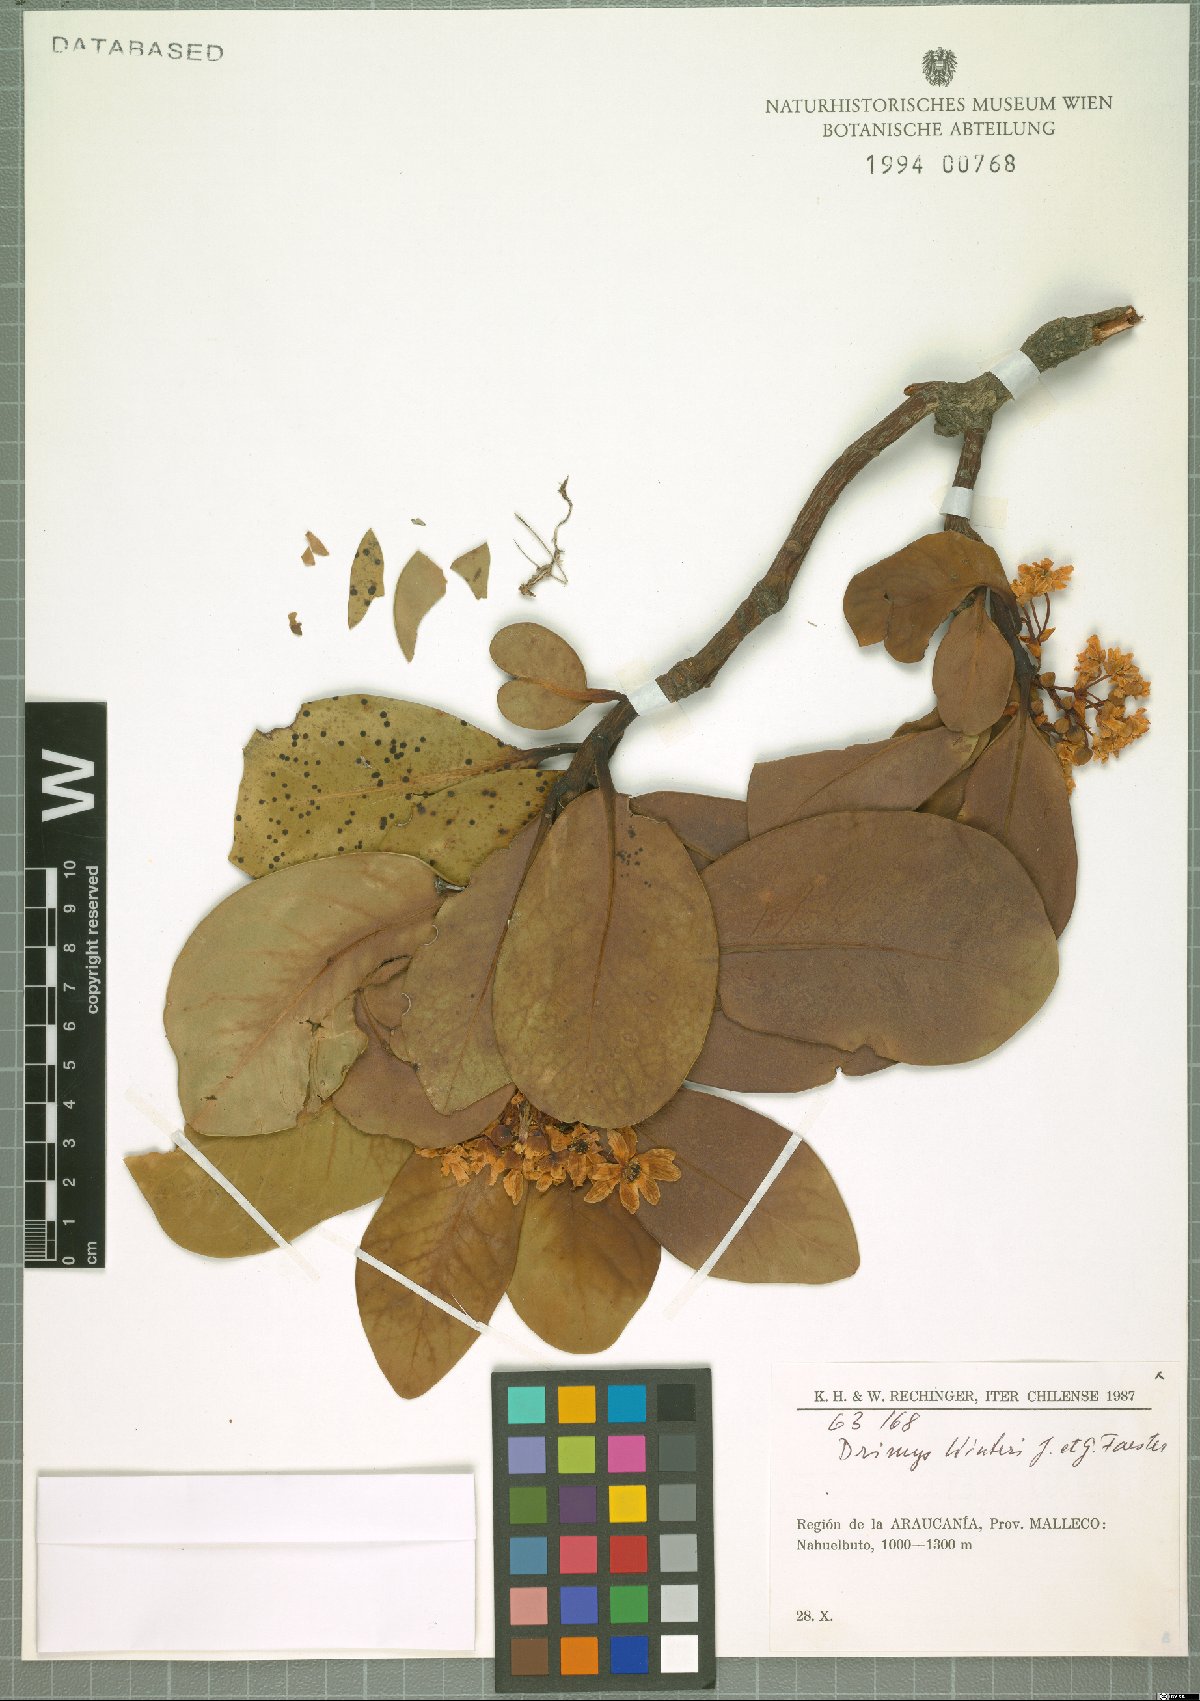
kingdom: Plantae
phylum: Tracheophyta
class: Magnoliopsida
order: Canellales
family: Winteraceae
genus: Drimys
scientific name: Drimys winteri
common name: Winter's-bark
